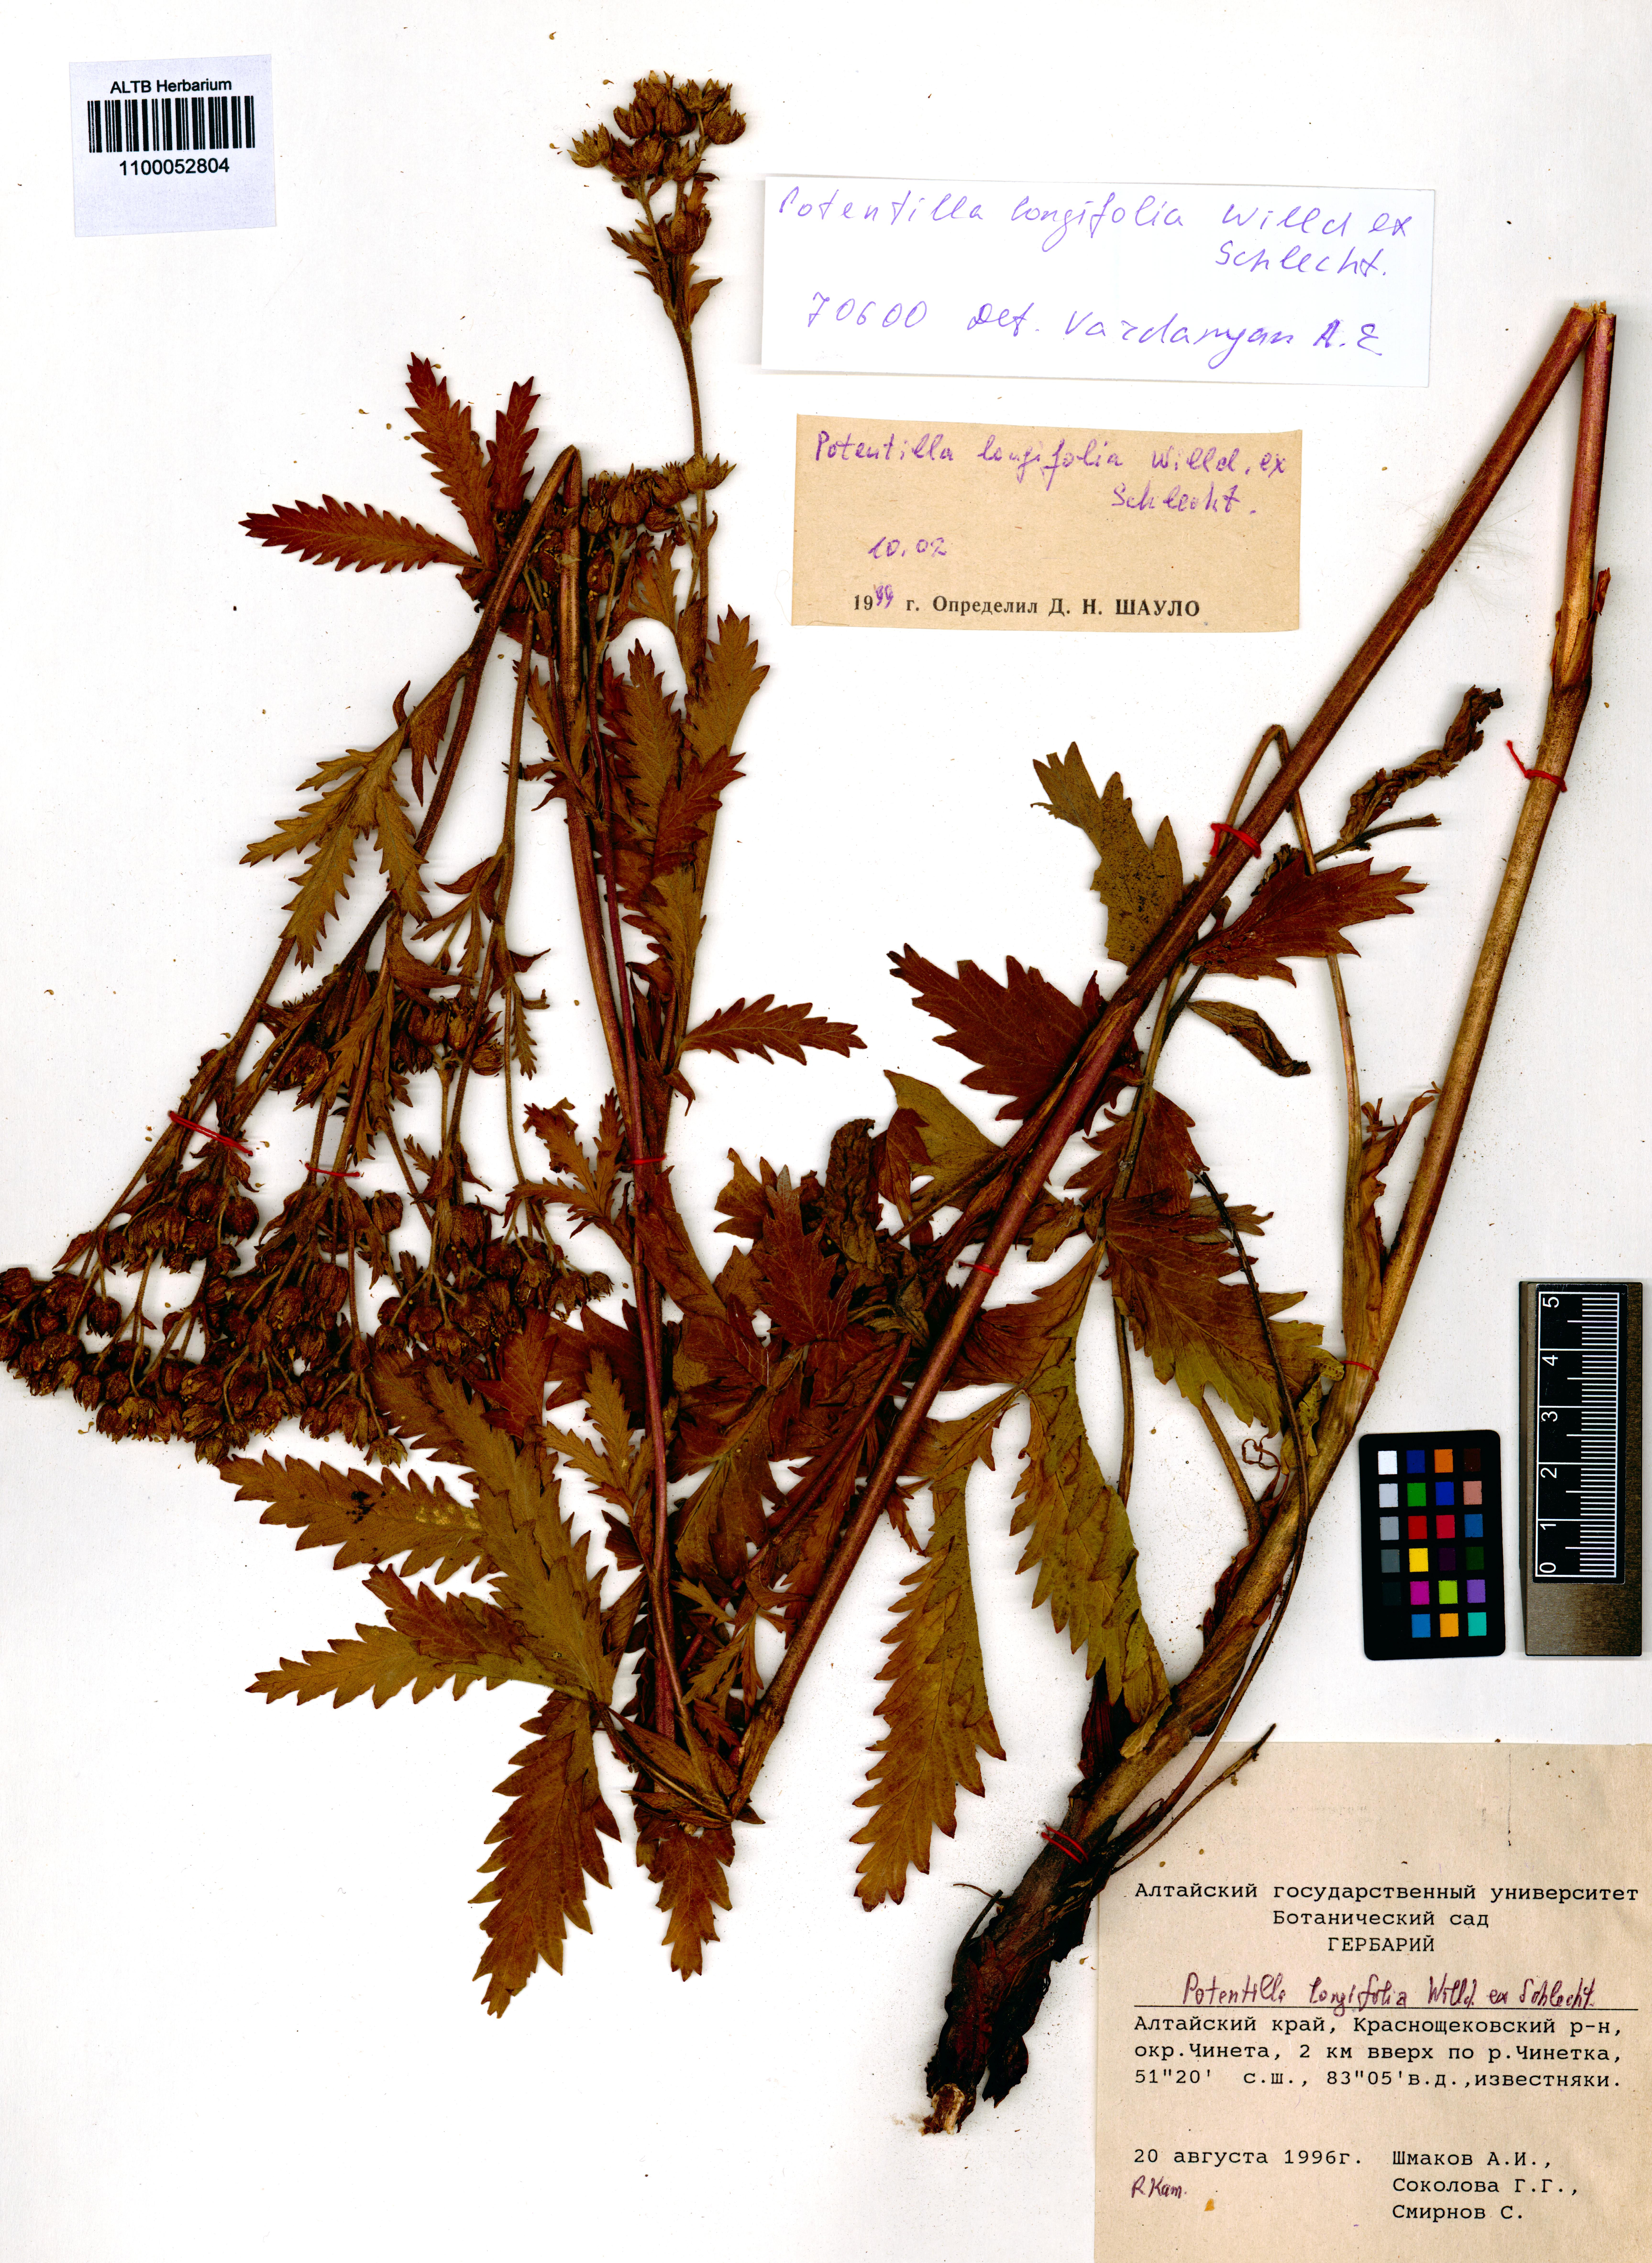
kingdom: Plantae
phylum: Tracheophyta
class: Magnoliopsida
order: Rosales
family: Rosaceae
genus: Potentilla
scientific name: Potentilla longifolia
